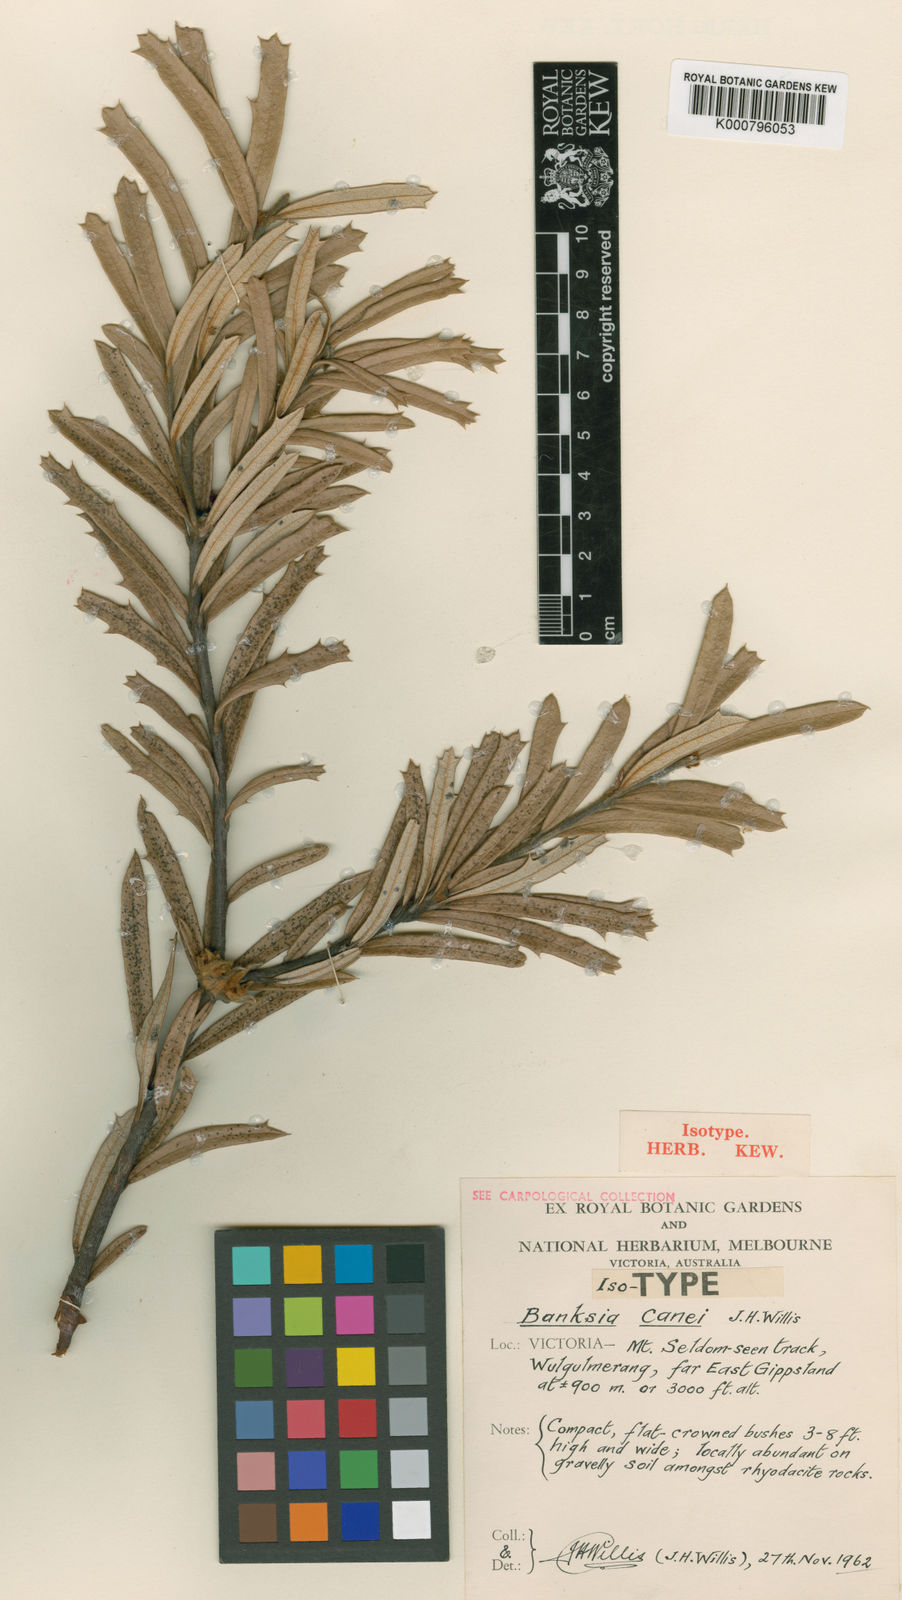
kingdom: Plantae
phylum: Tracheophyta
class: Magnoliopsida
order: Proteales
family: Proteaceae
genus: Banksia
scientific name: Banksia canei
